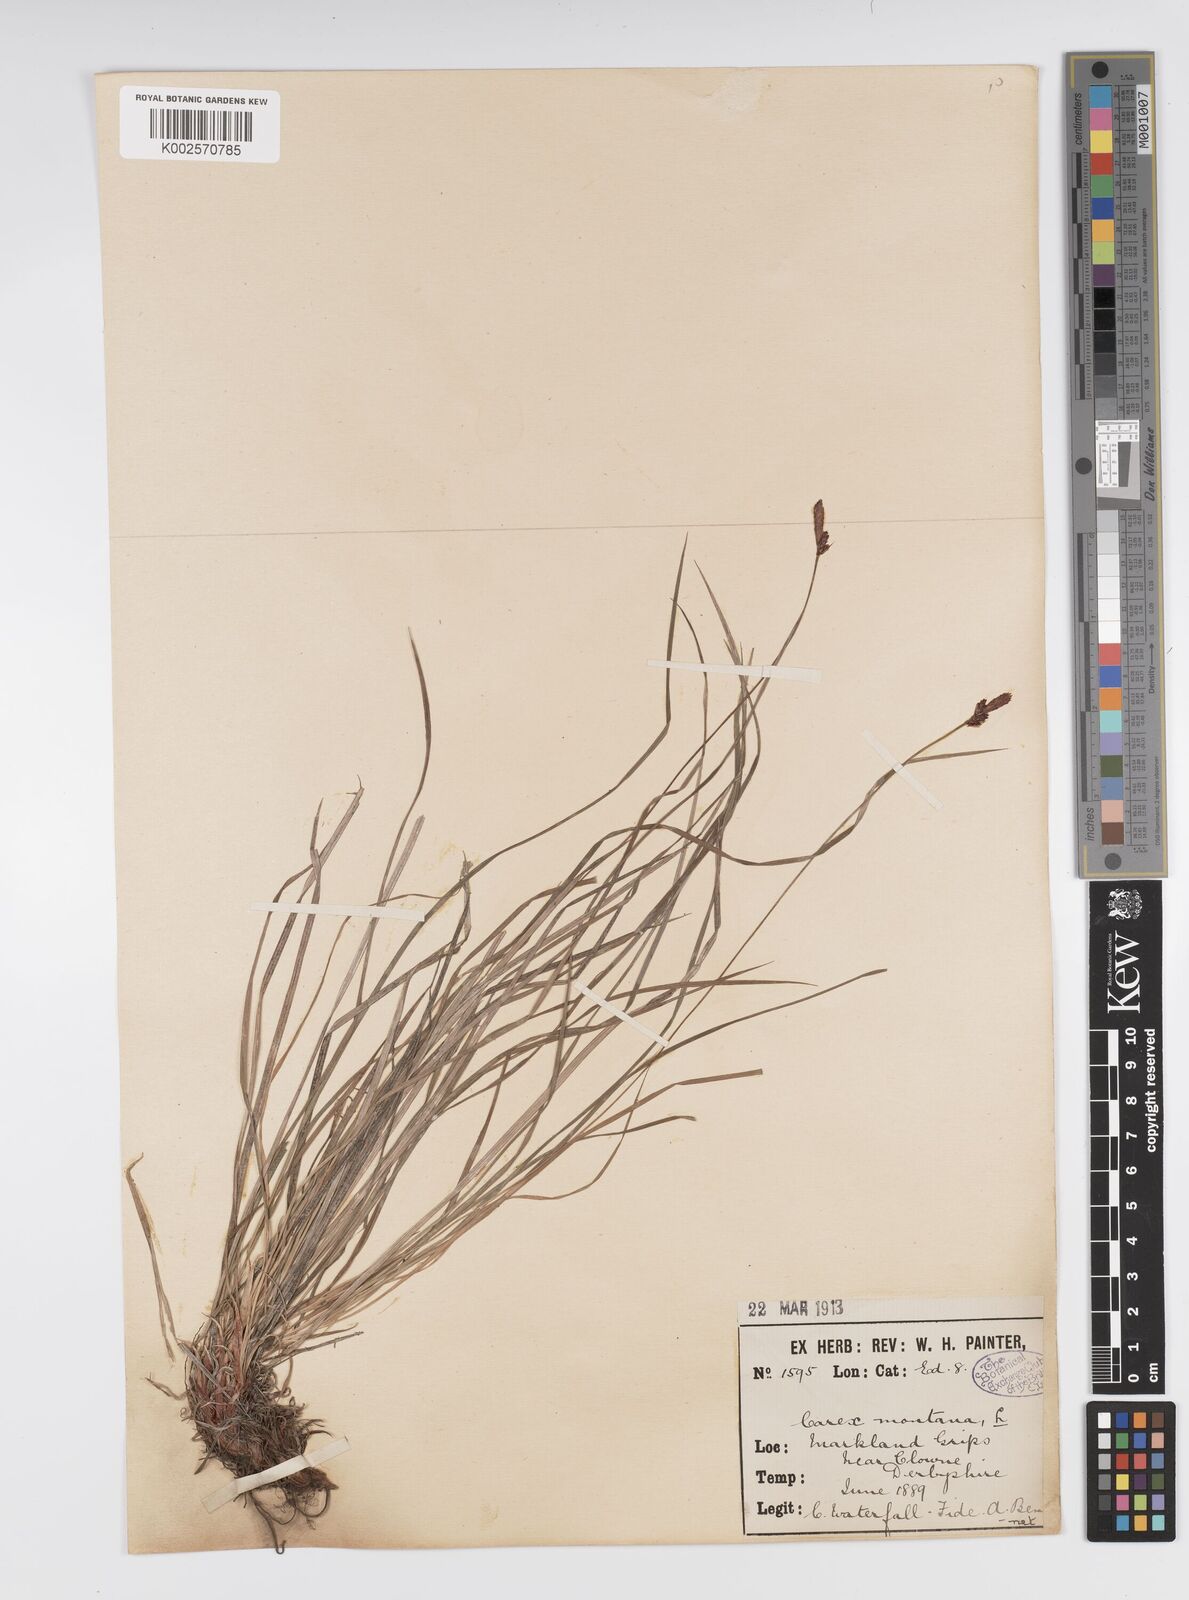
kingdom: Plantae
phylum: Tracheophyta
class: Liliopsida
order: Poales
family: Cyperaceae
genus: Carex
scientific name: Carex montana
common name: Soft-leaved sedge
